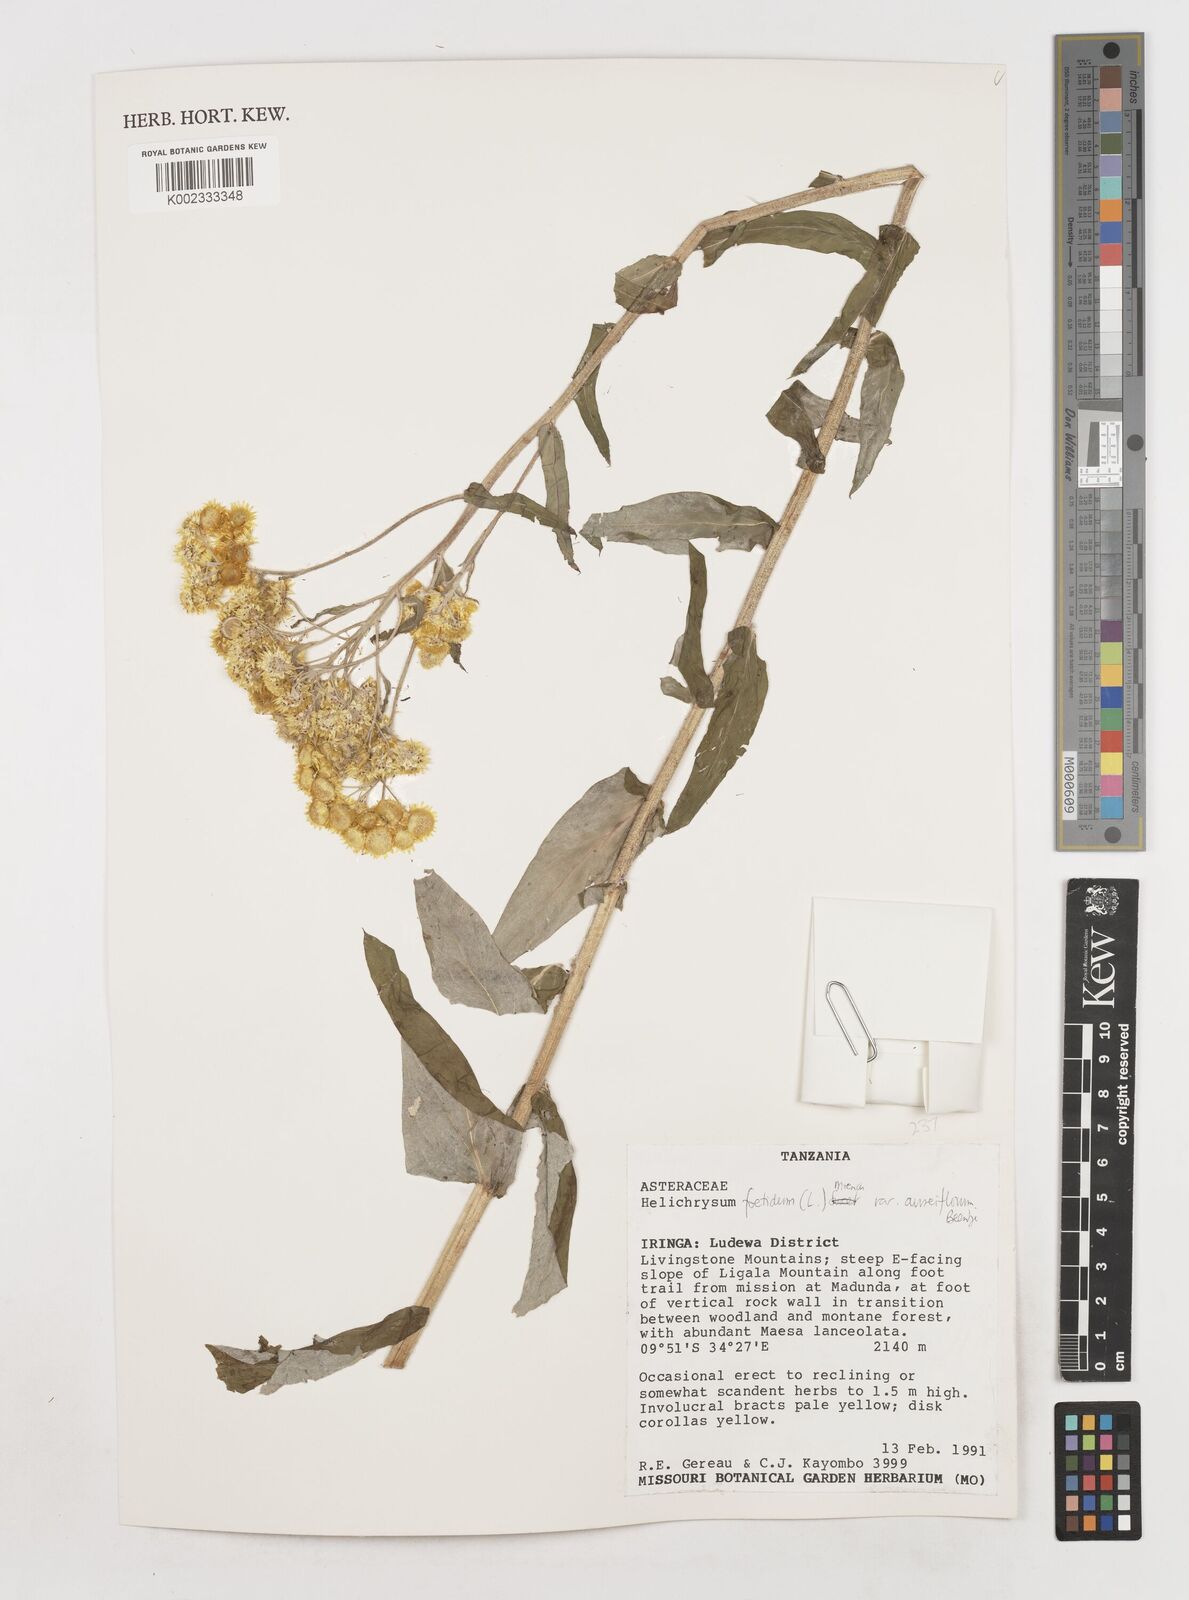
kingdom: Plantae
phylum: Tracheophyta
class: Magnoliopsida
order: Asterales
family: Asteraceae
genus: Helichrysum
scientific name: Helichrysum foetidum
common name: Stinking everlasting
